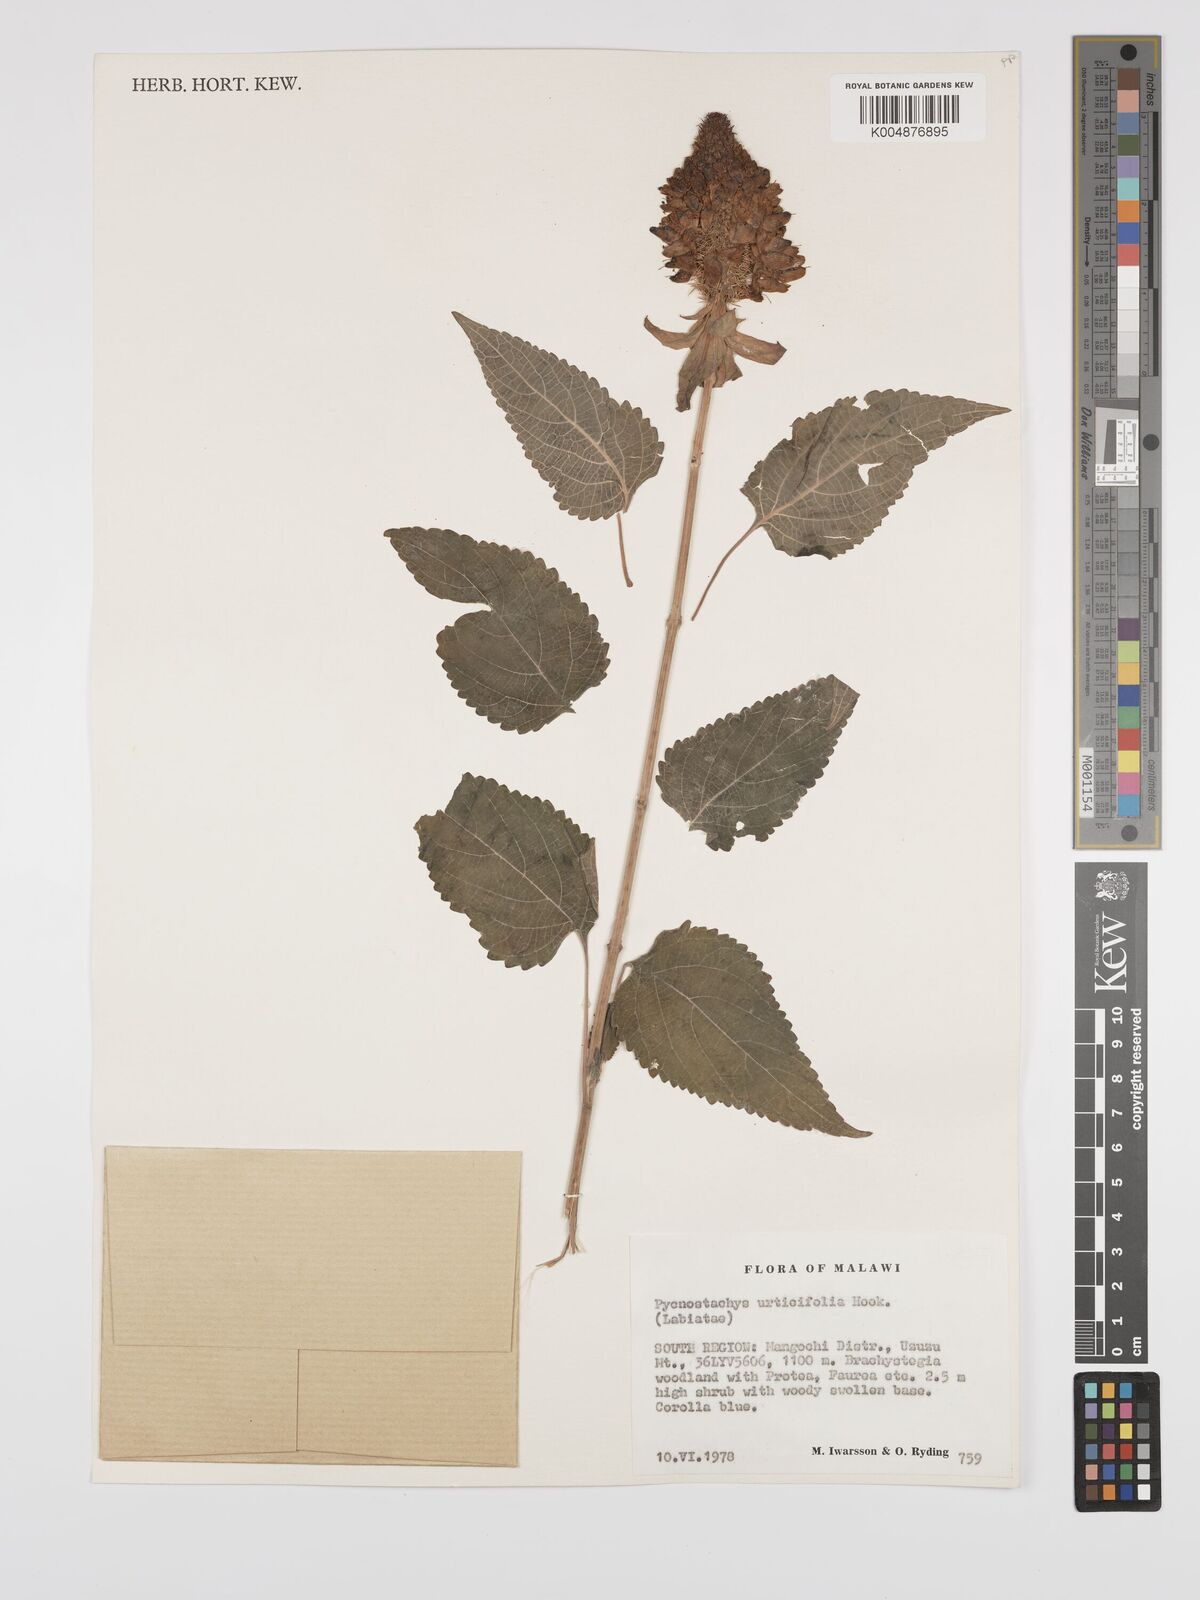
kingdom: Plantae
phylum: Tracheophyta
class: Magnoliopsida
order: Lamiales
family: Lamiaceae
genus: Coleus
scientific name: Coleus livingstonei
